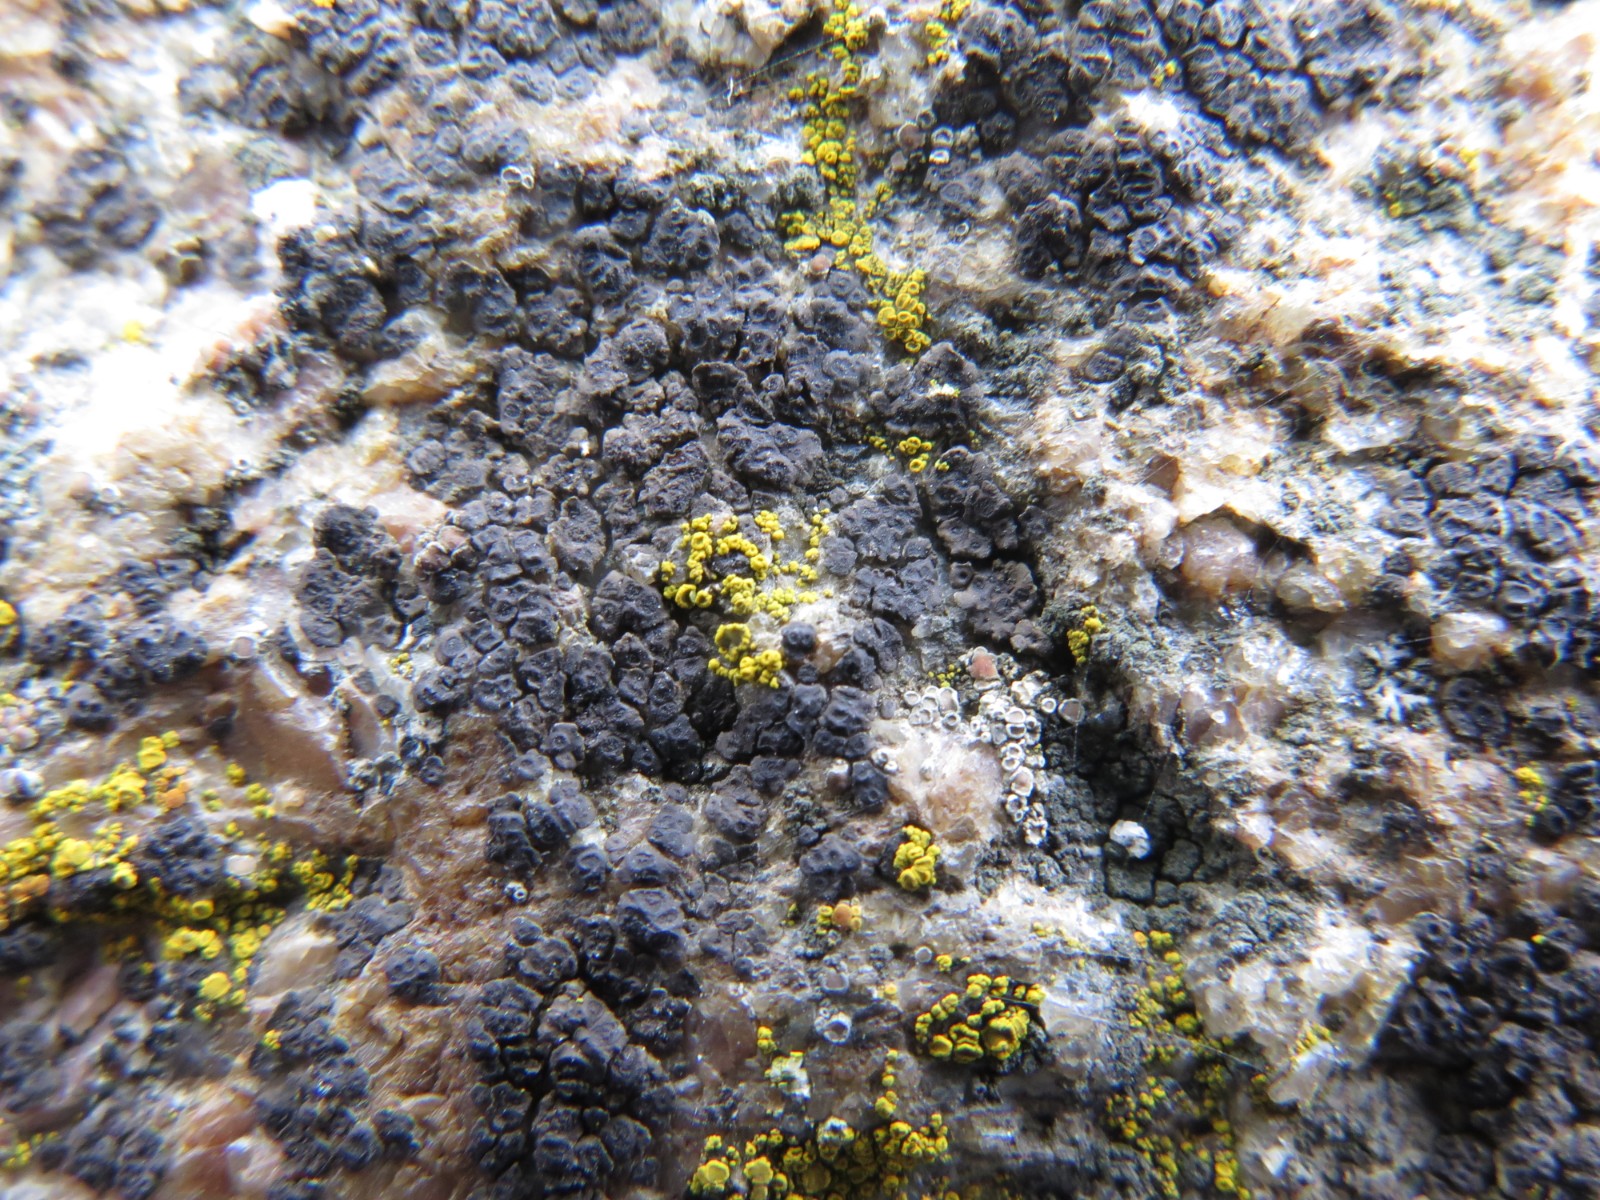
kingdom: Fungi
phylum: Ascomycota
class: Lecanoromycetes
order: Acarosporales
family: Acarosporaceae
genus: Acarospora
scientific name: Acarospora fuscata
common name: brun småsporelav
